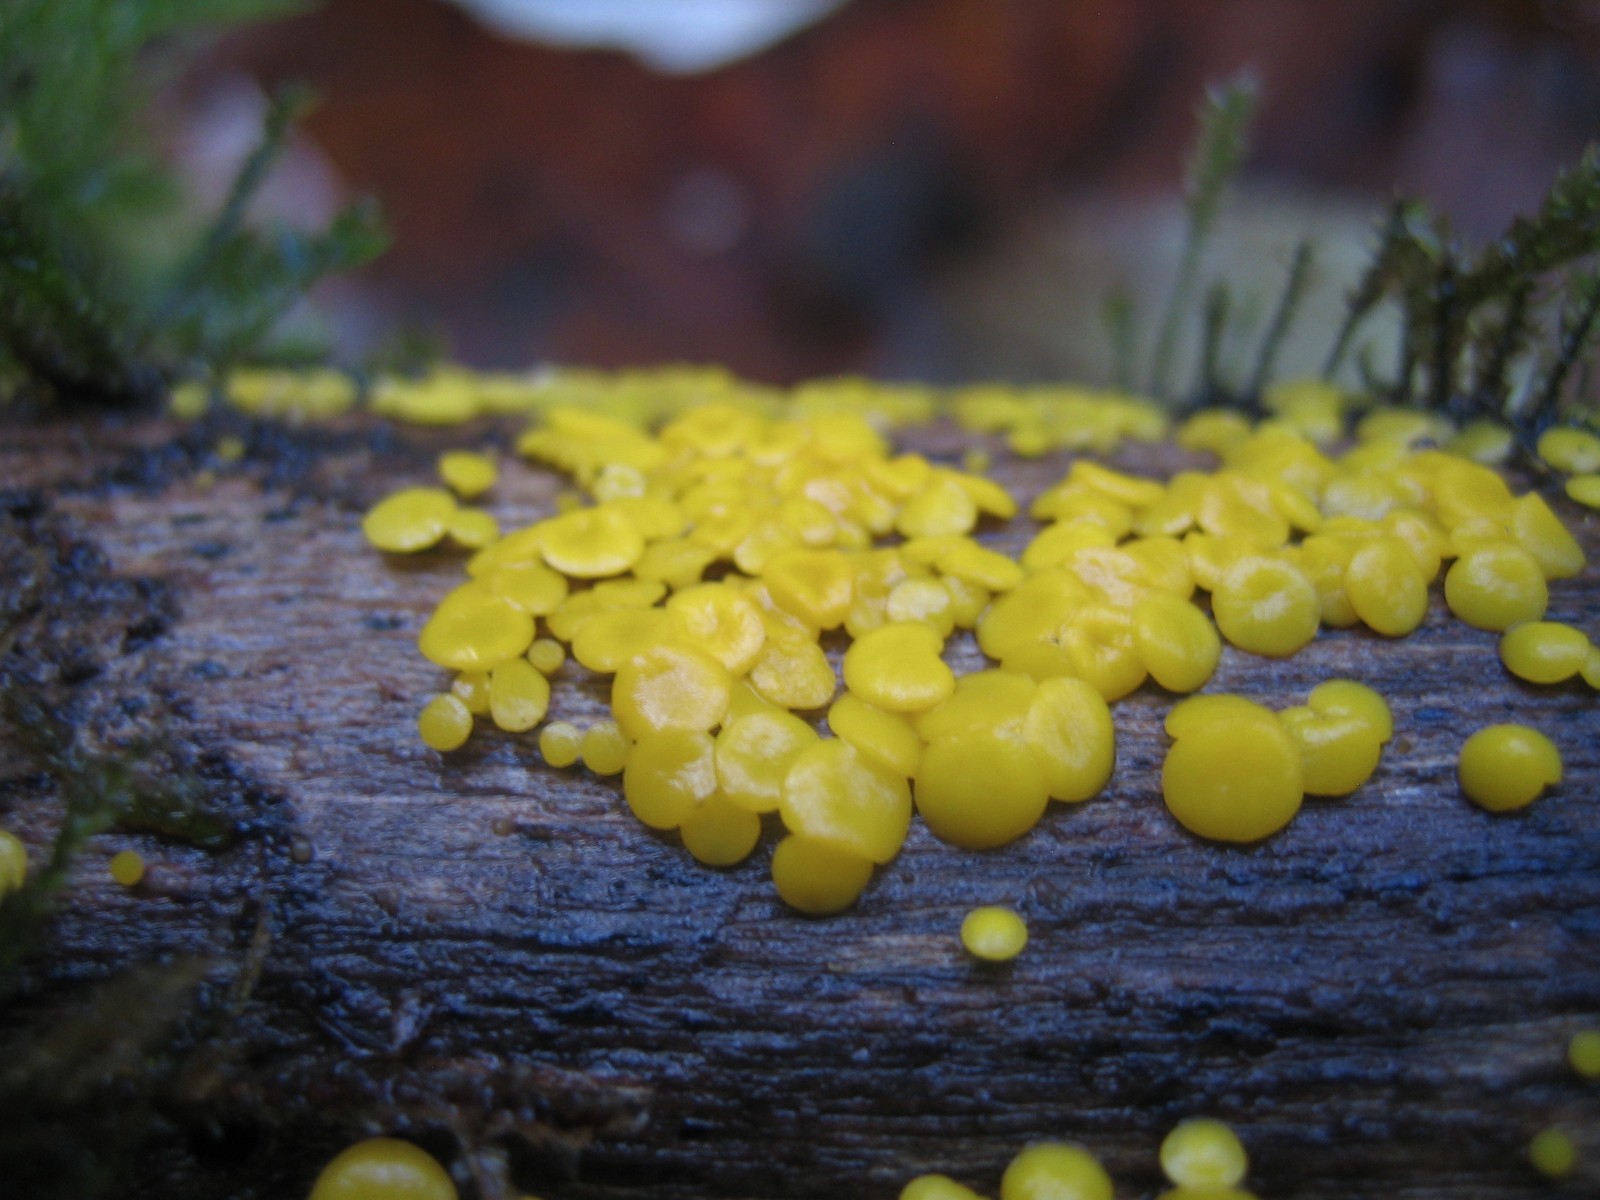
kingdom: Fungi
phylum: Ascomycota
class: Leotiomycetes
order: Helotiales
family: Pezizellaceae
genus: Calycina
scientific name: Calycina citrina
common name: almindelig gulskive
